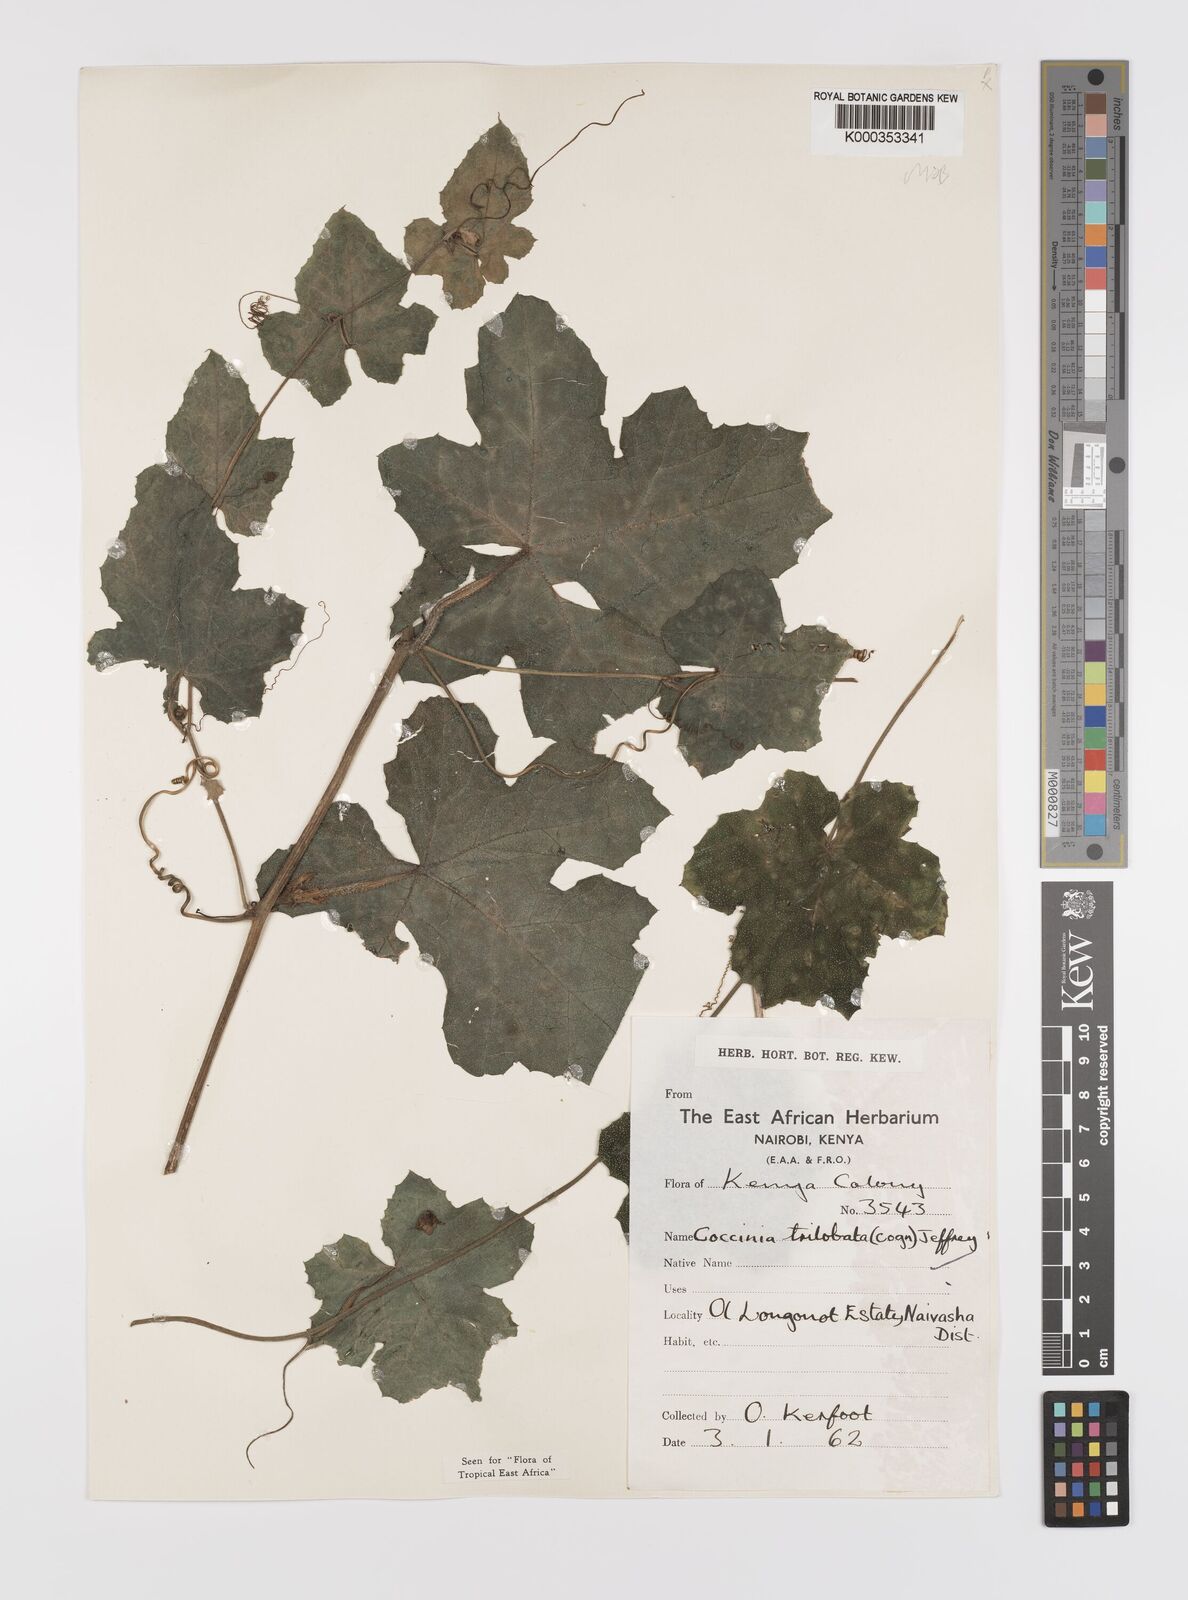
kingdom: Plantae
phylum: Tracheophyta
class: Magnoliopsida
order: Cucurbitales
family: Cucurbitaceae
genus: Coccinia
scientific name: Coccinia trilobata
